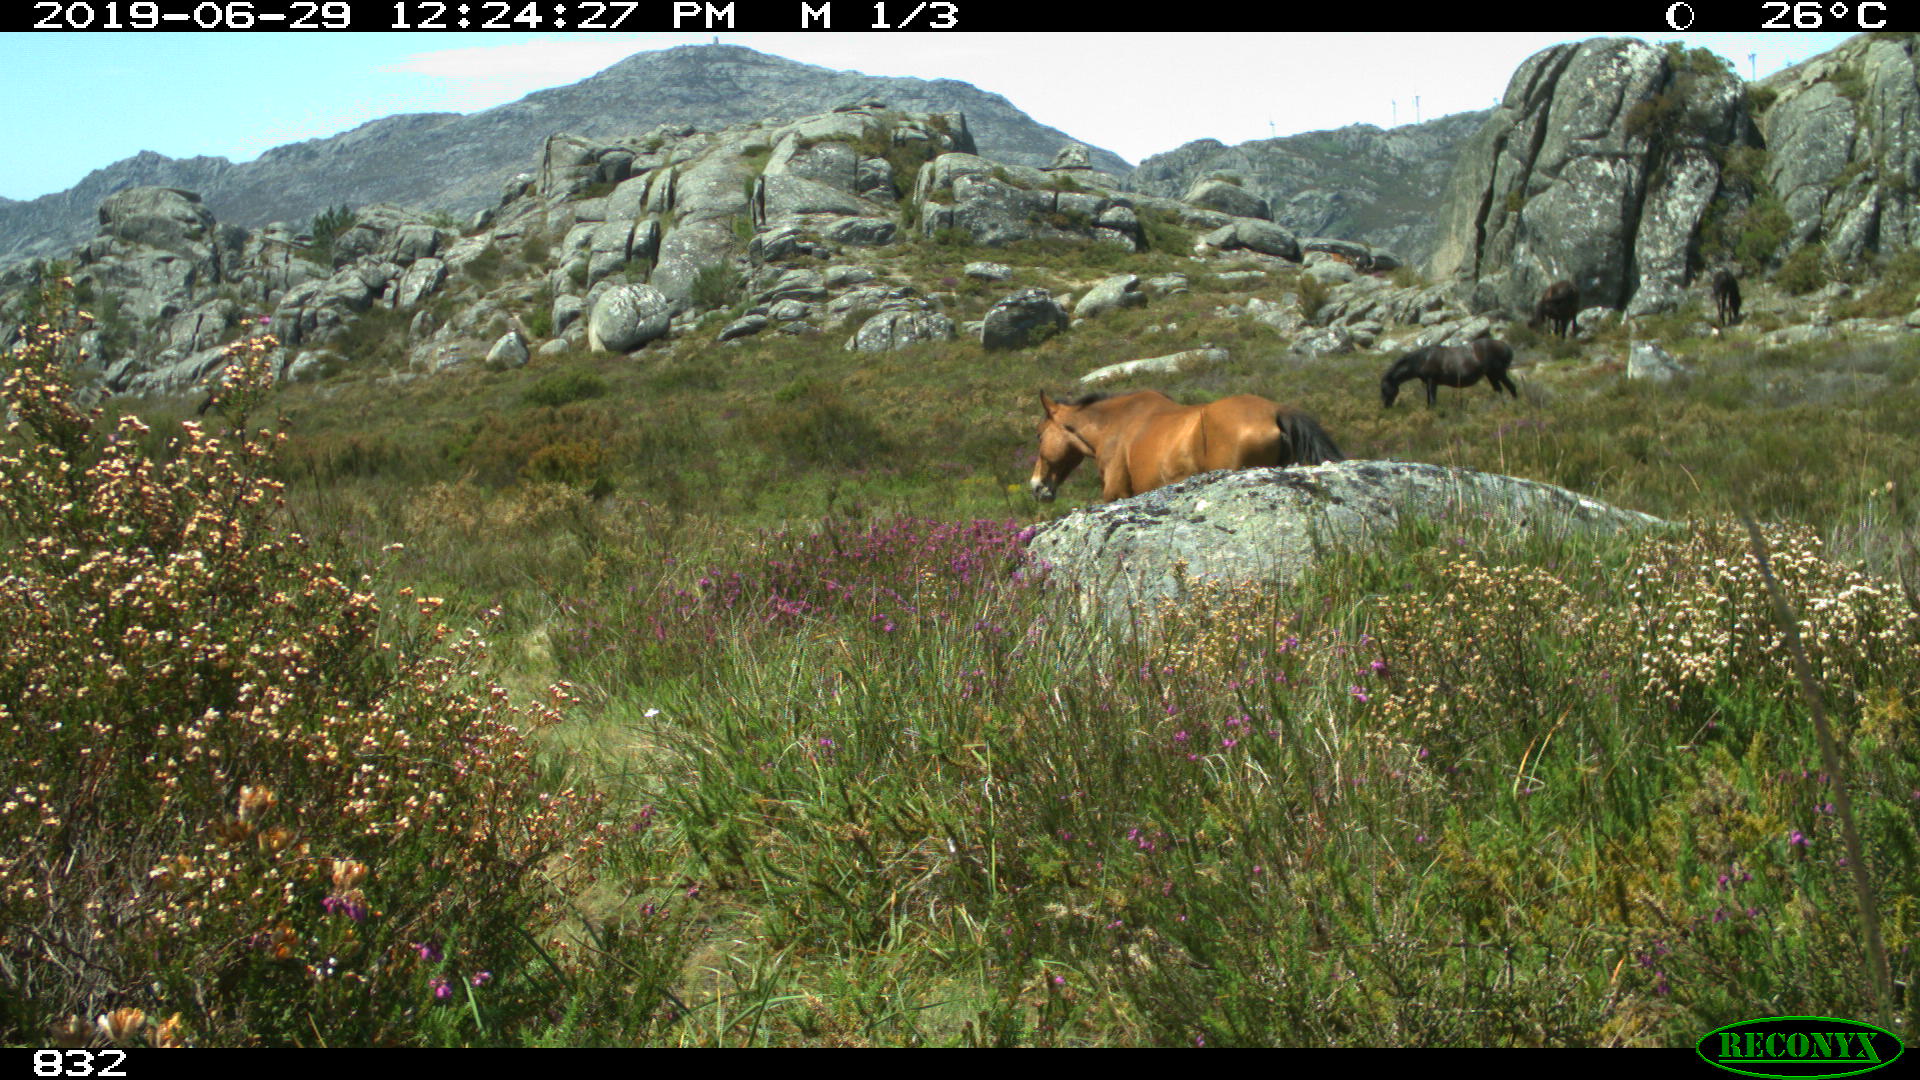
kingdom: Animalia
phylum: Chordata
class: Mammalia
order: Perissodactyla
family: Equidae
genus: Equus
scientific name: Equus caballus
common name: Horse
